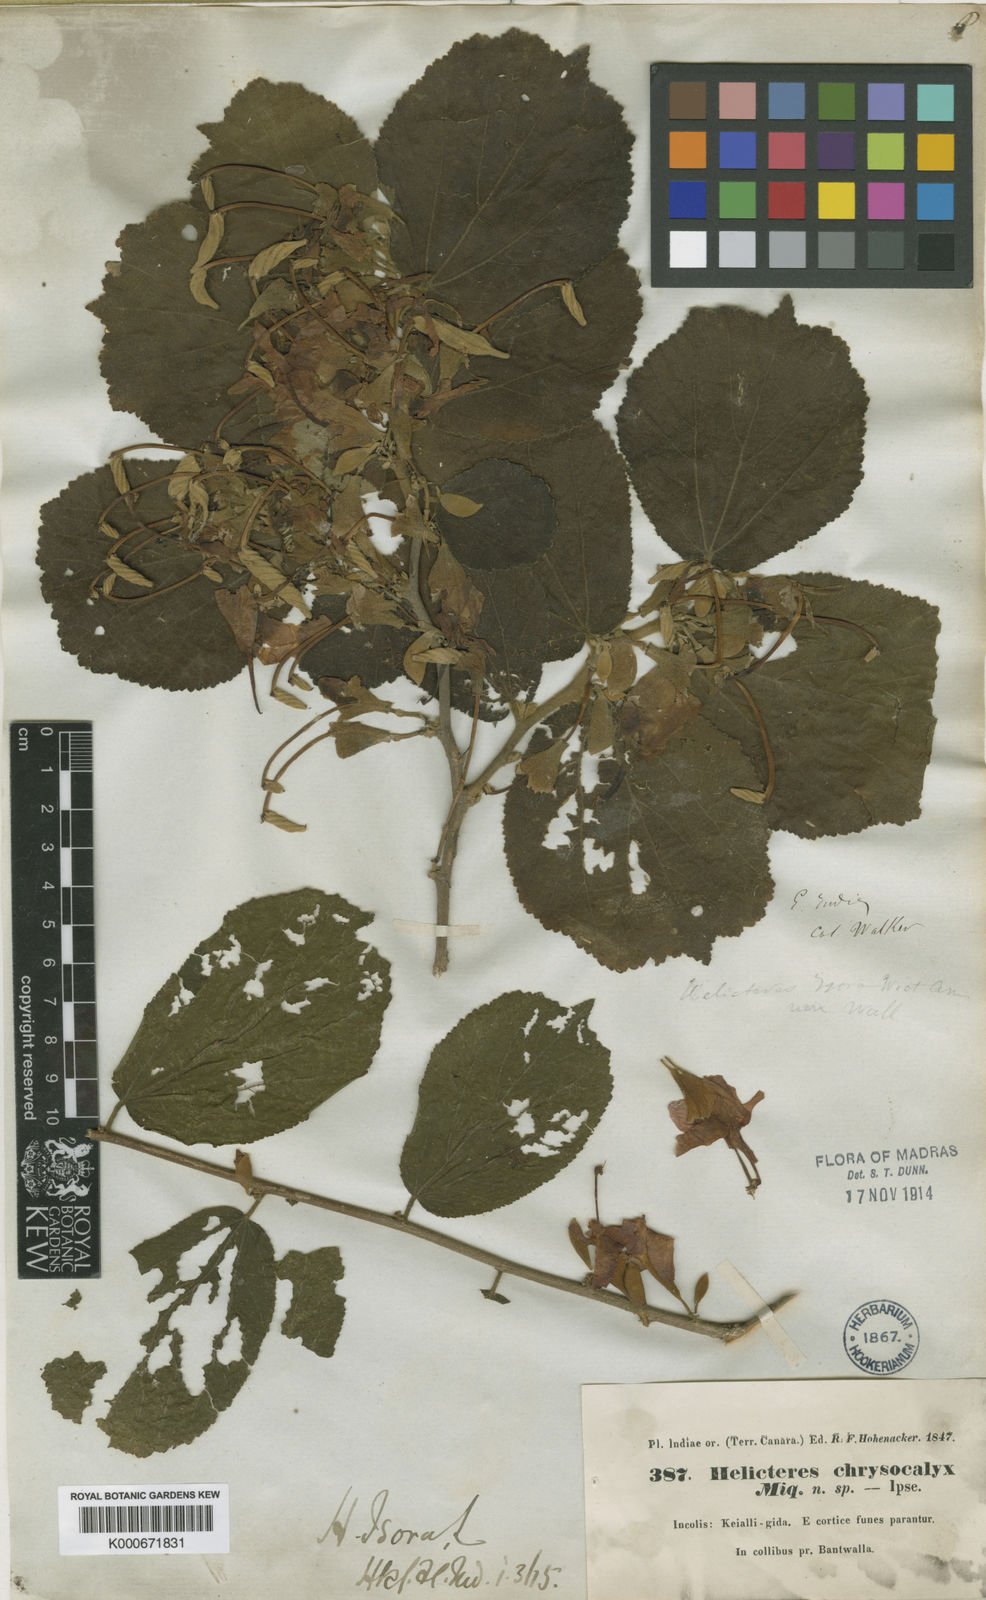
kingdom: Plantae
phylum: Tracheophyta
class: Magnoliopsida
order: Malvales
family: Malvaceae
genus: Helicteres
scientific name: Helicteres isora
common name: East indian screwtree
